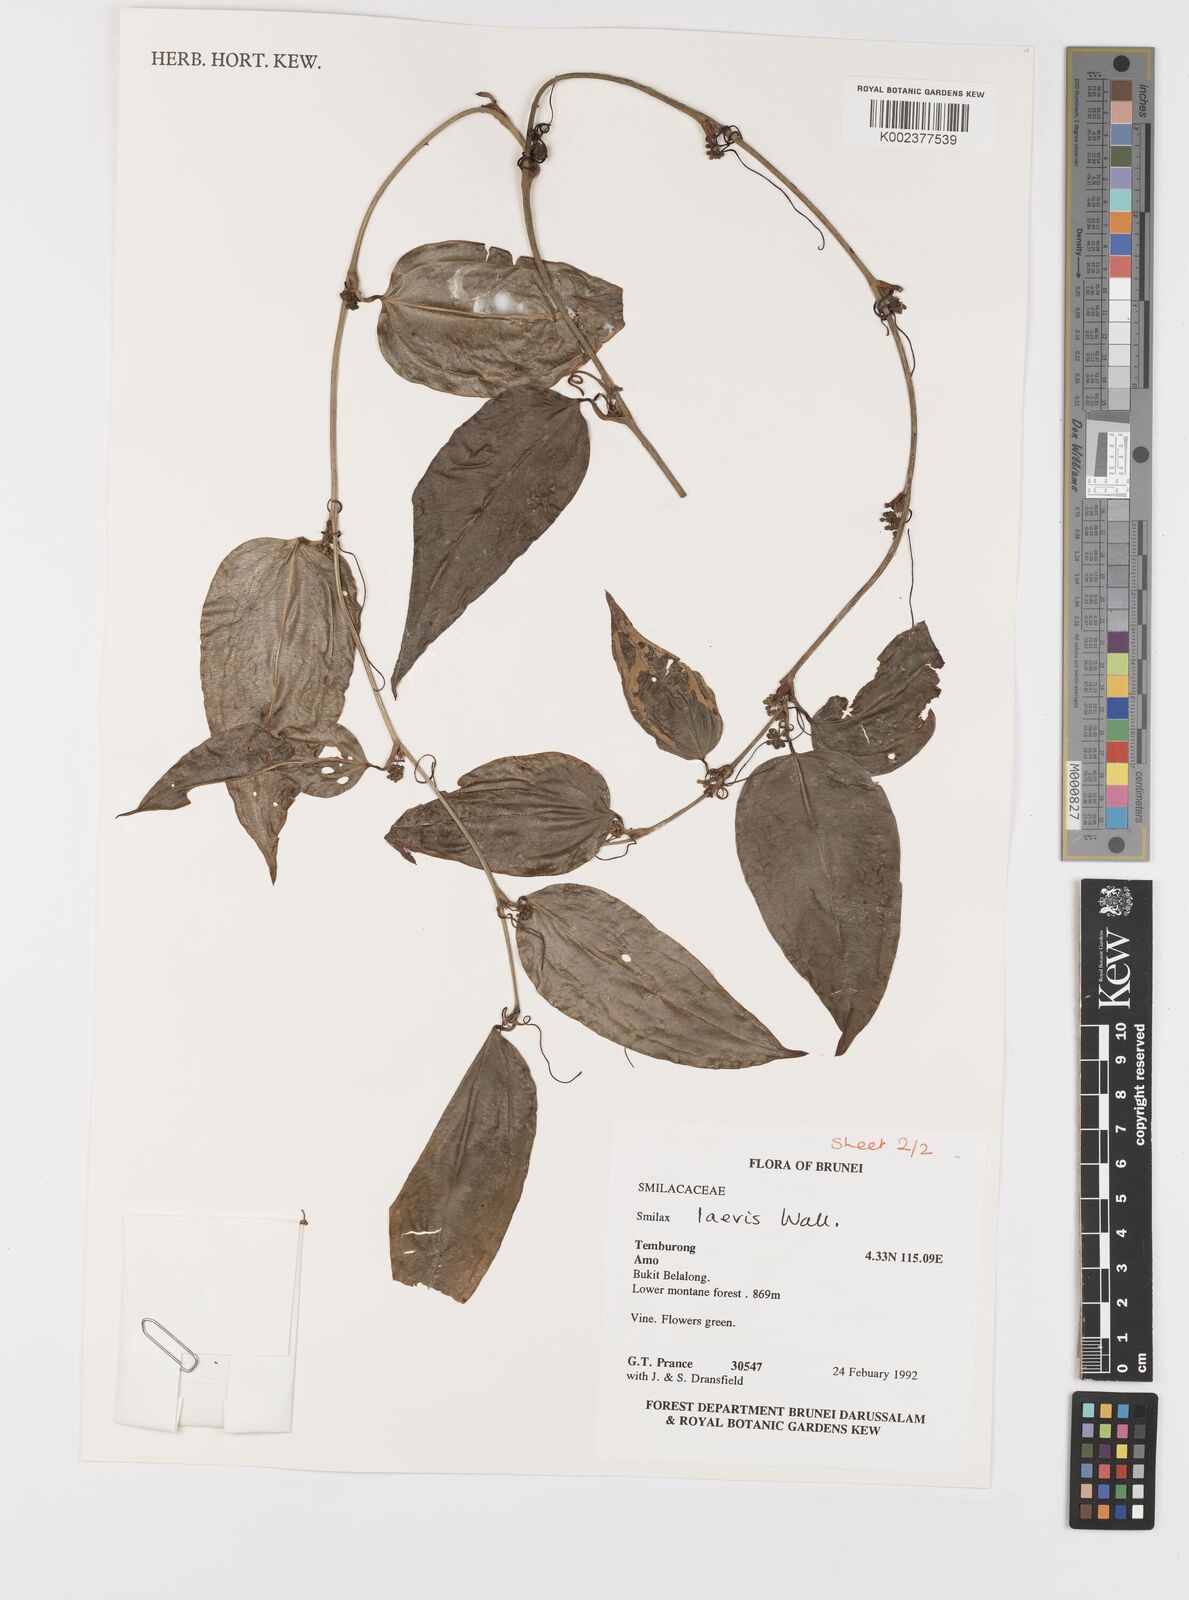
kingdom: Plantae
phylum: Tracheophyta
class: Liliopsida
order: Liliales
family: Smilacaceae
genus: Smilax
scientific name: Smilax laevis
